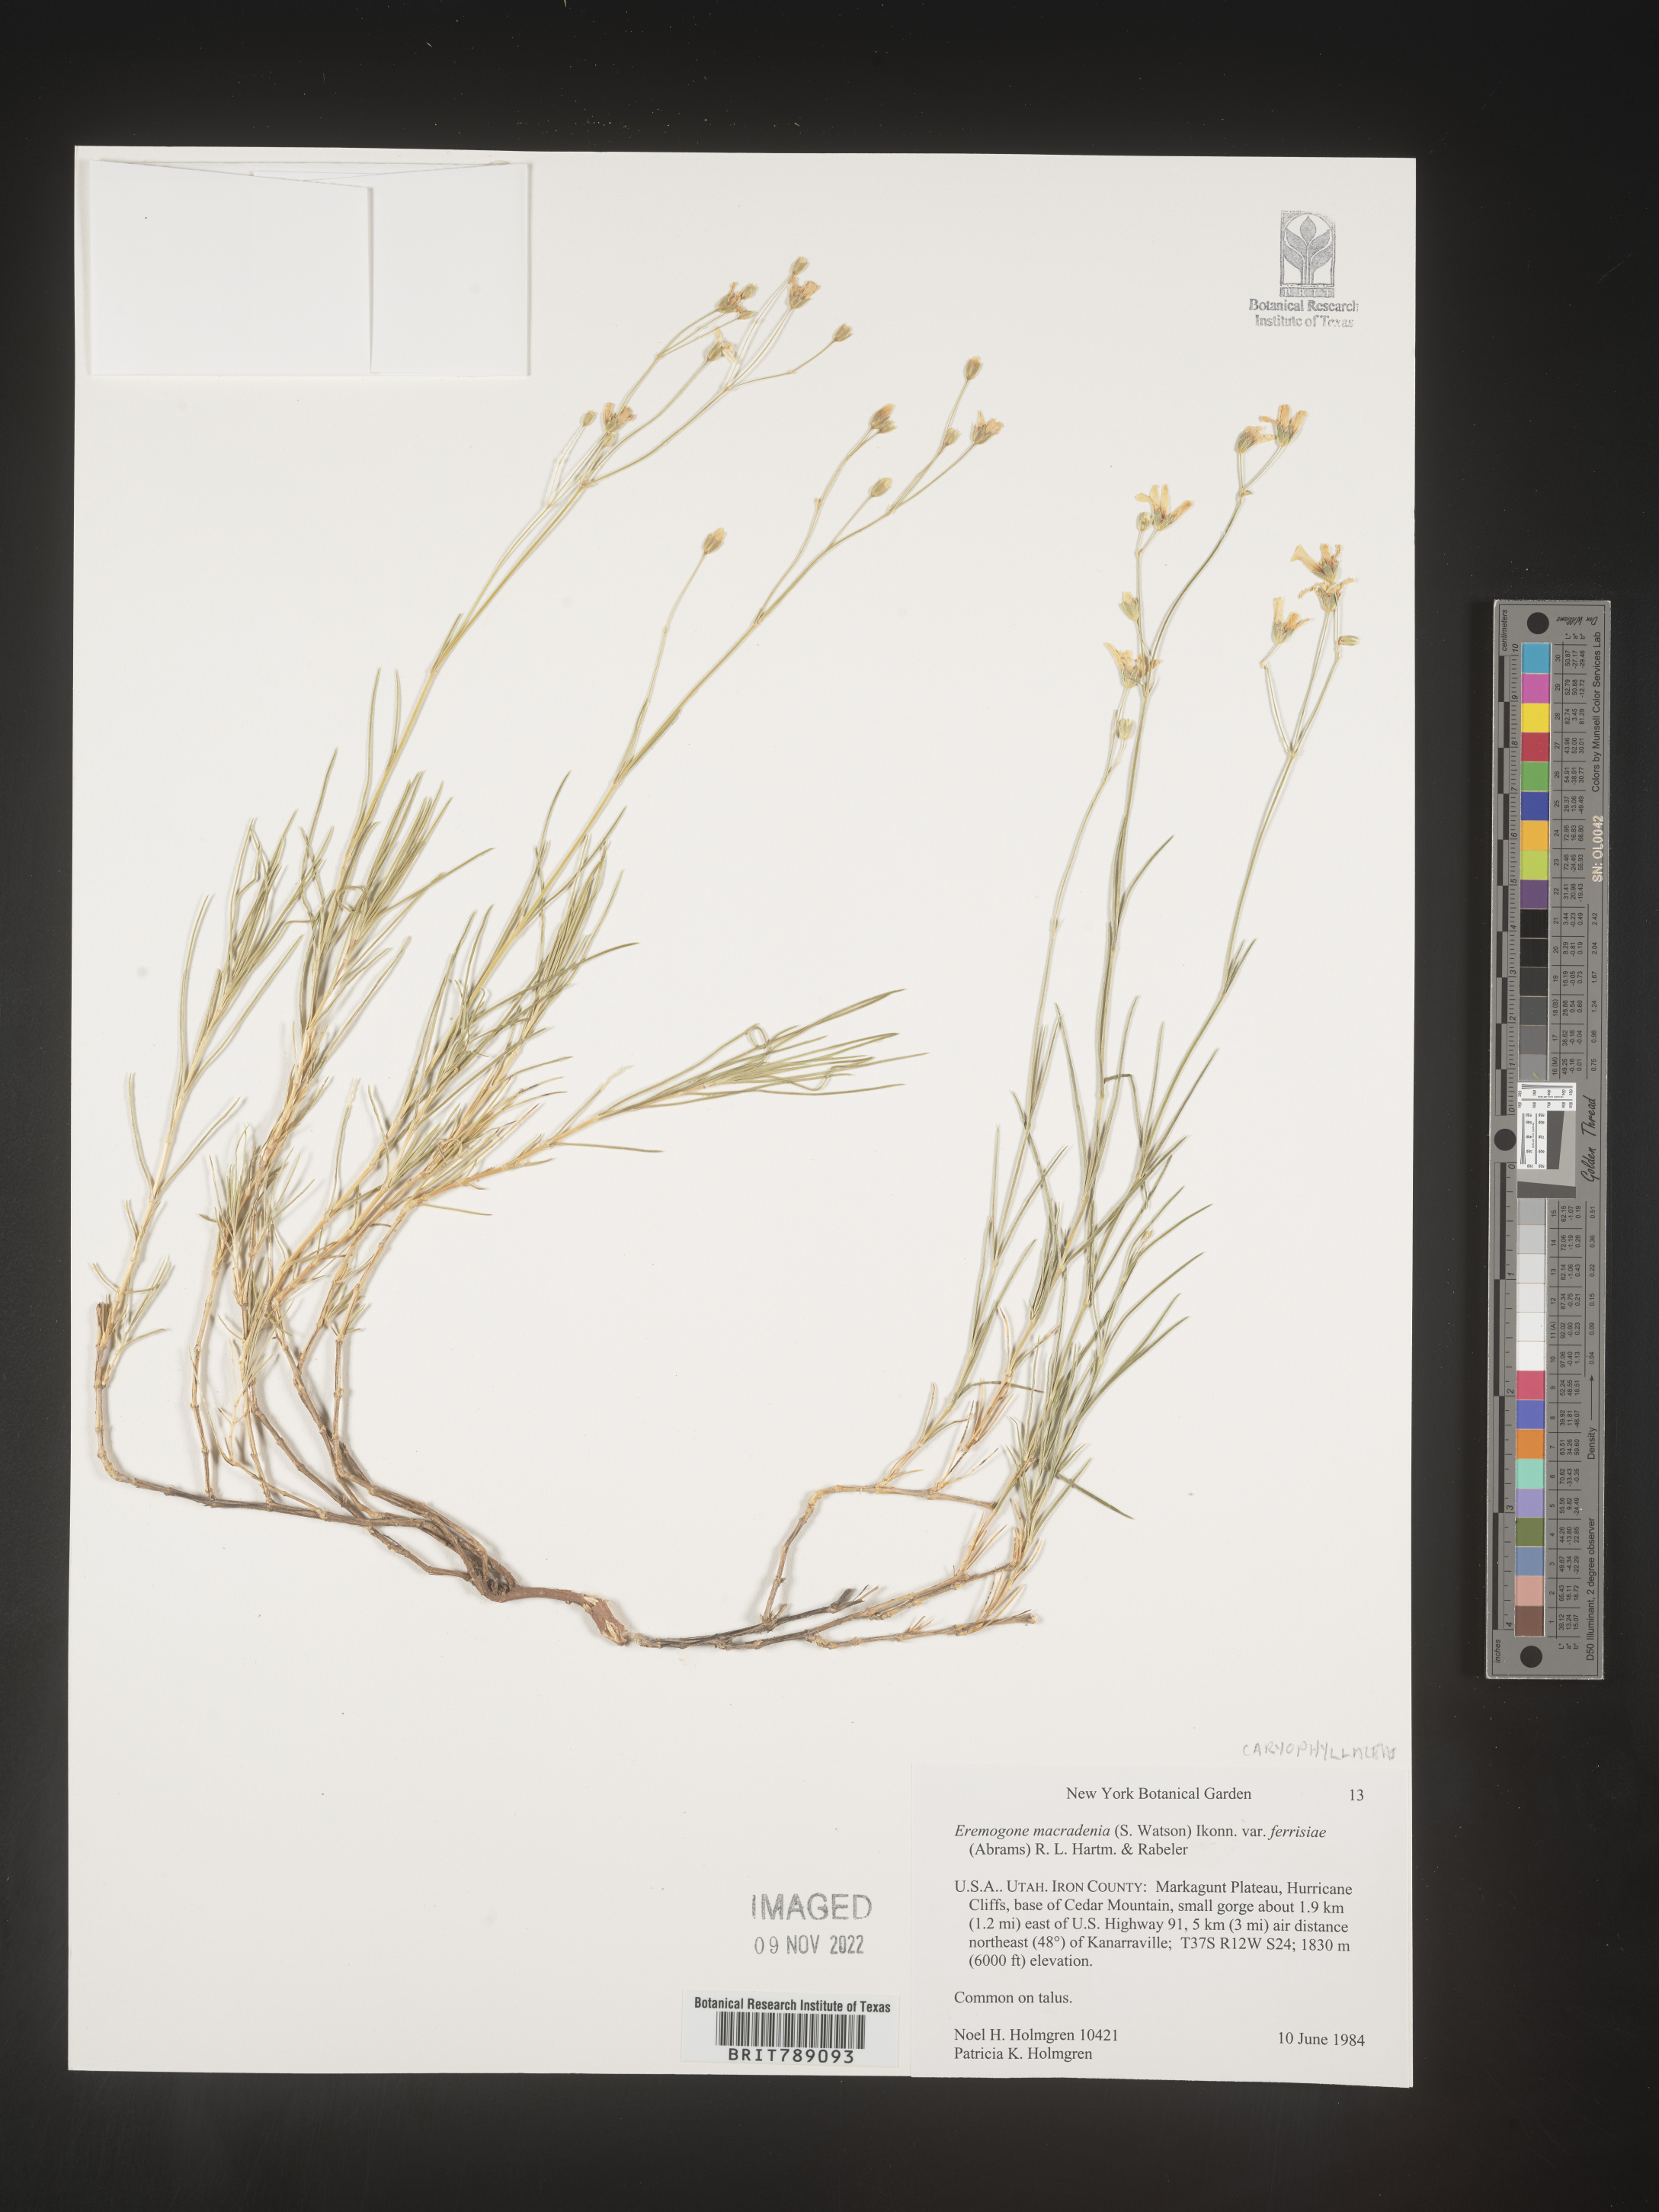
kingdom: Plantae
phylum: Tracheophyta
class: Magnoliopsida
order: Caryophyllales
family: Caryophyllaceae
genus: Arenaria
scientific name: Arenaria
